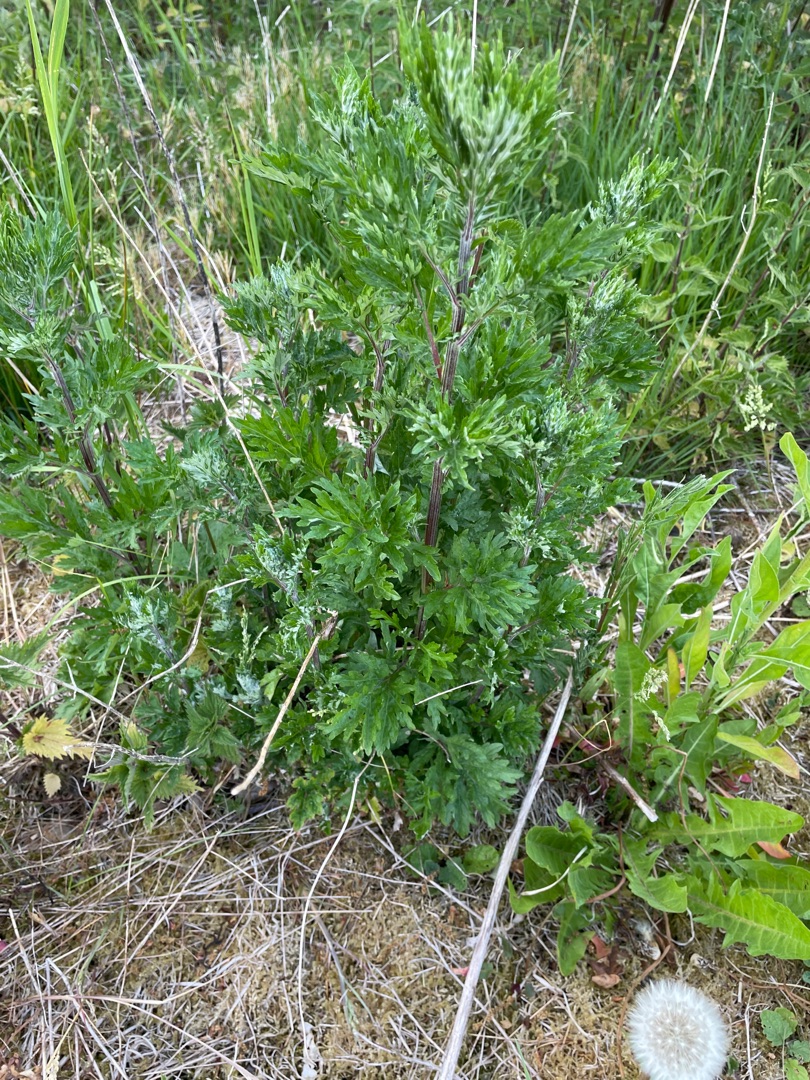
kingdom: Plantae
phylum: Tracheophyta
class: Magnoliopsida
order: Asterales
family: Asteraceae
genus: Artemisia
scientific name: Artemisia vulgaris
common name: Grå-bynke
